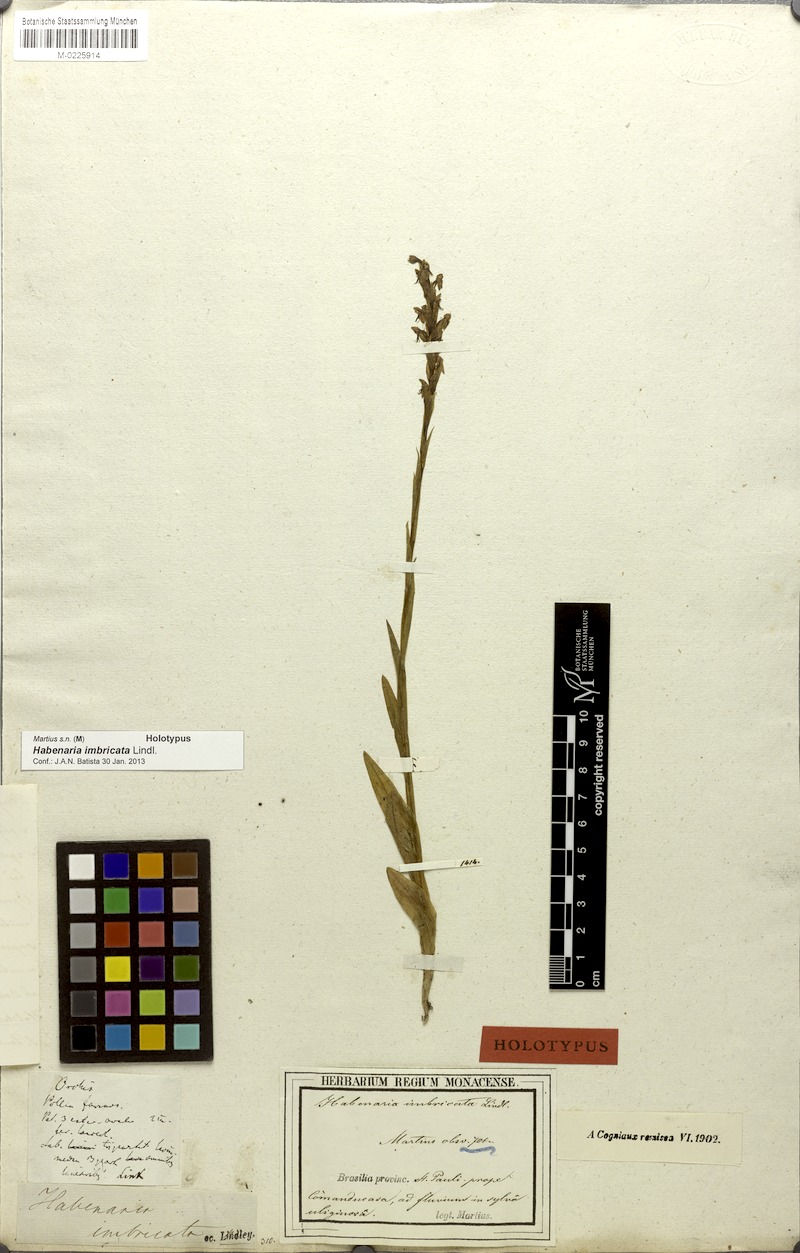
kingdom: Plantae
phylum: Tracheophyta
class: Liliopsida
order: Asparagales
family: Orchidaceae
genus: Habenaria
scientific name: Habenaria imbricata
